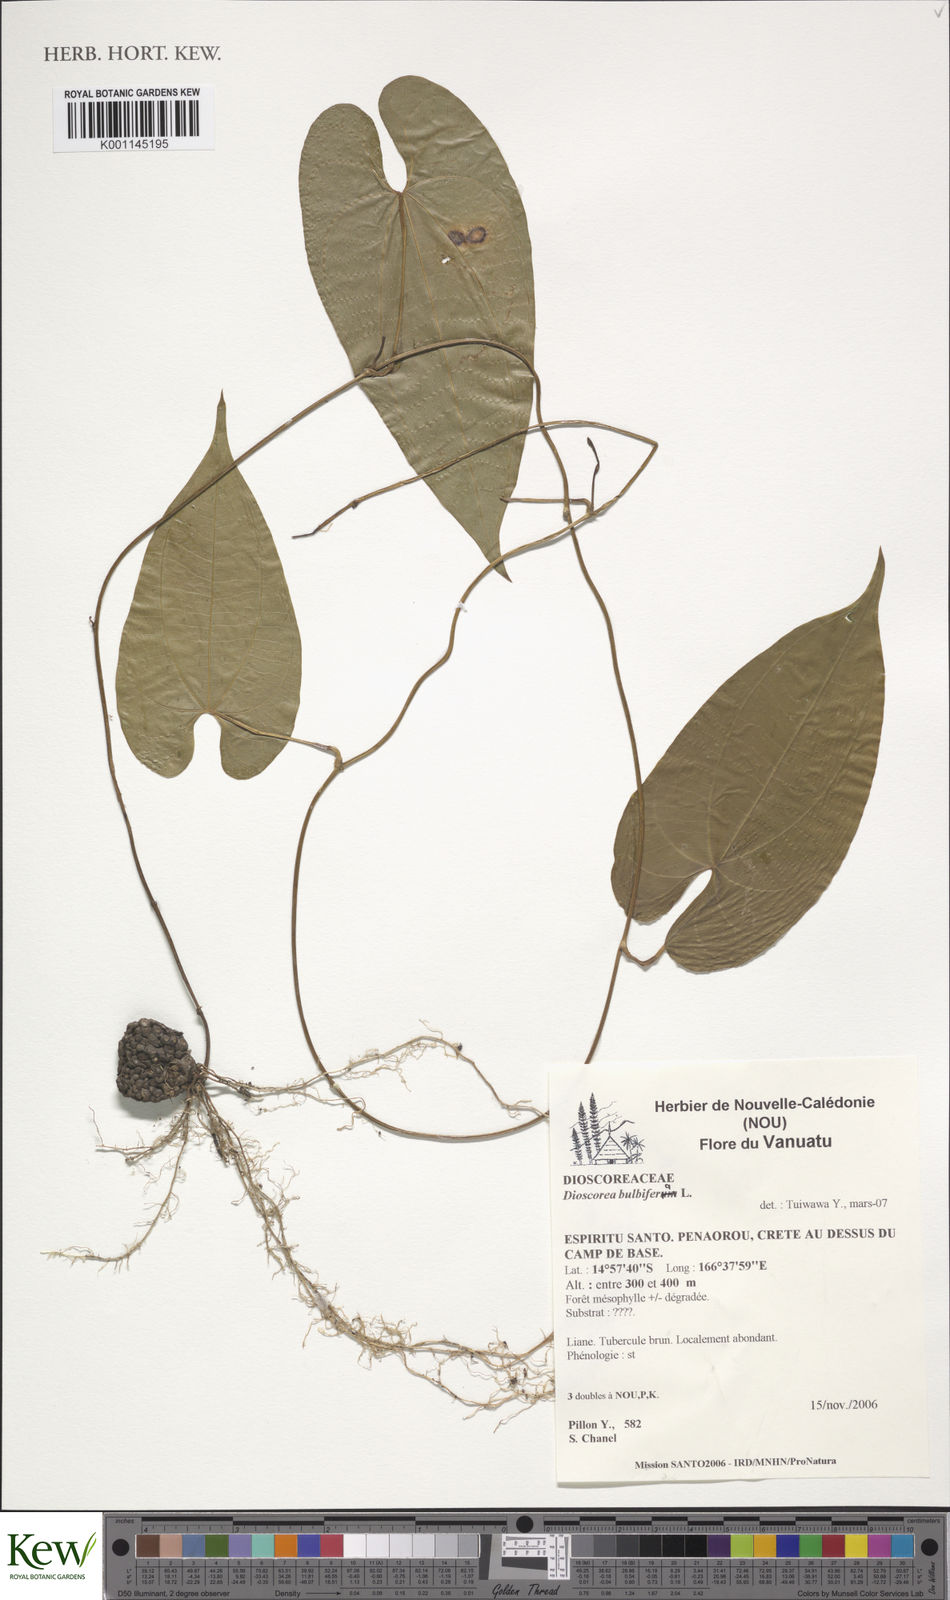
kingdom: Plantae
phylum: Tracheophyta
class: Liliopsida
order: Dioscoreales
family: Dioscoreaceae
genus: Dioscorea
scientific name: Dioscorea bulbifera
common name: Air yam
